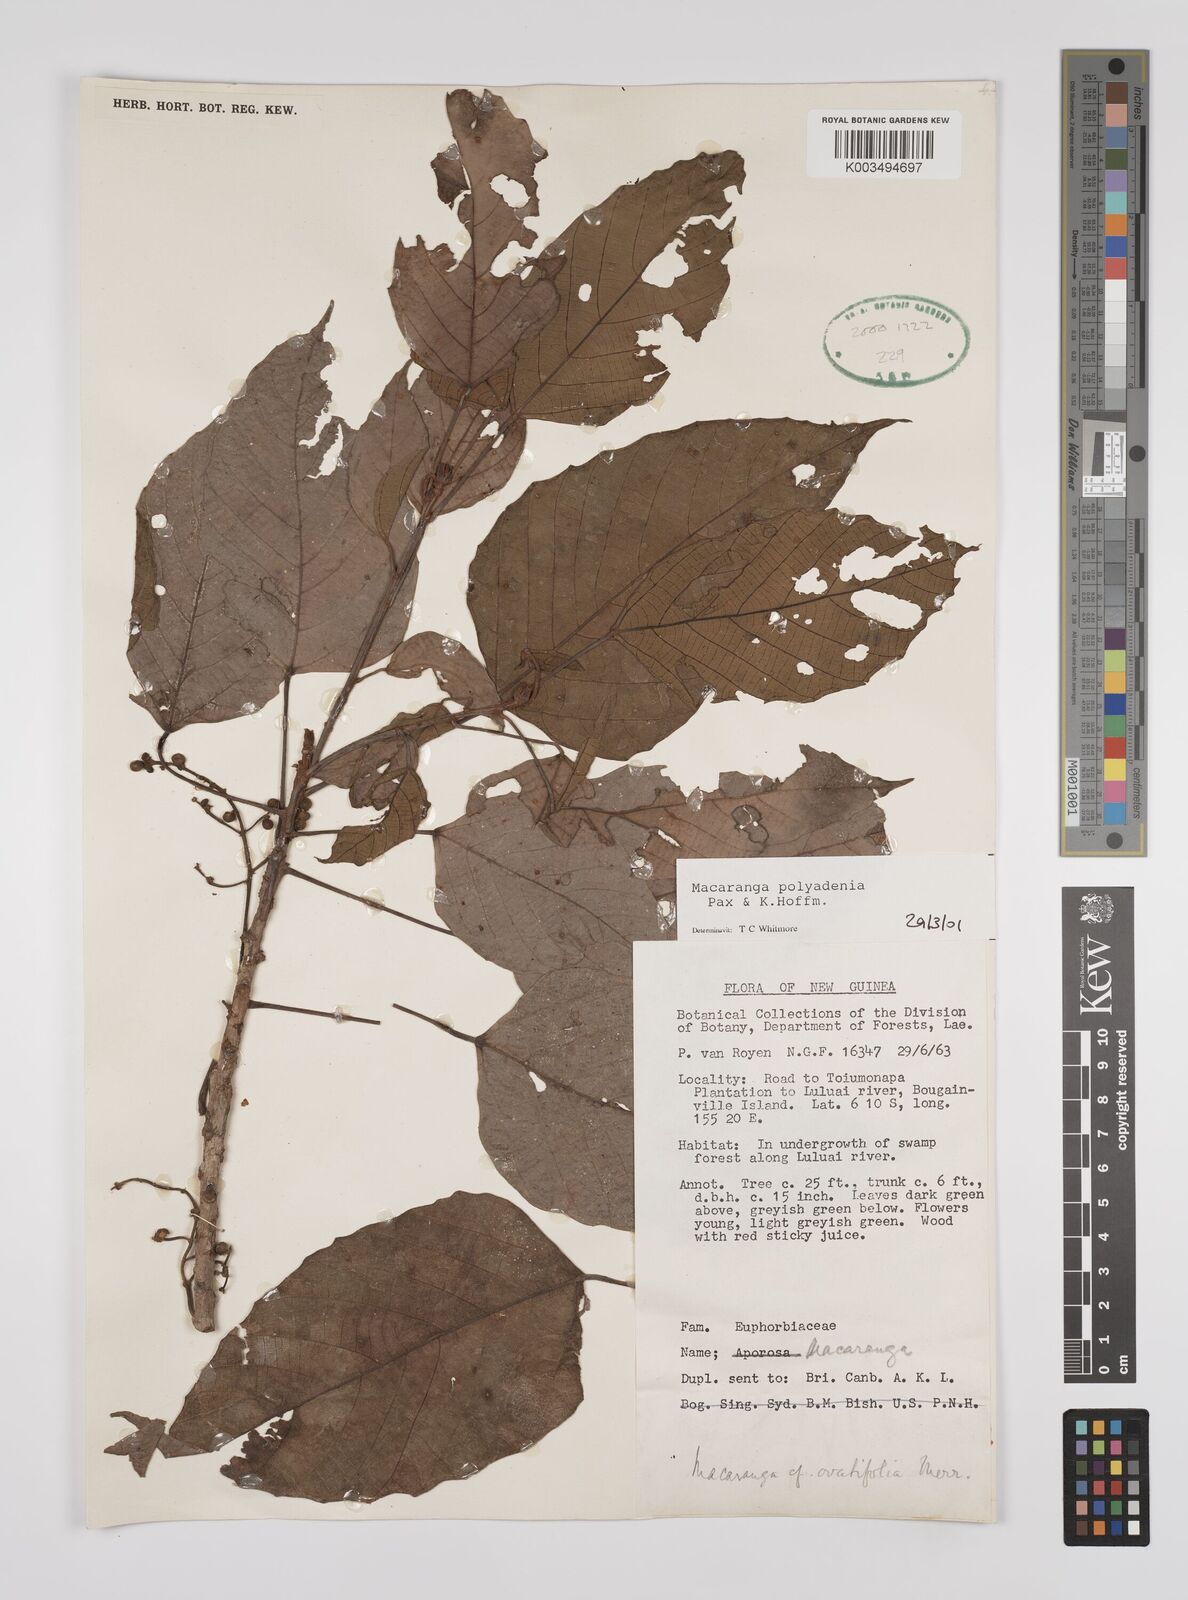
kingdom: Plantae
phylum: Tracheophyta
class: Magnoliopsida
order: Malpighiales
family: Euphorbiaceae
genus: Macaranga
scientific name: Macaranga polyadenia
